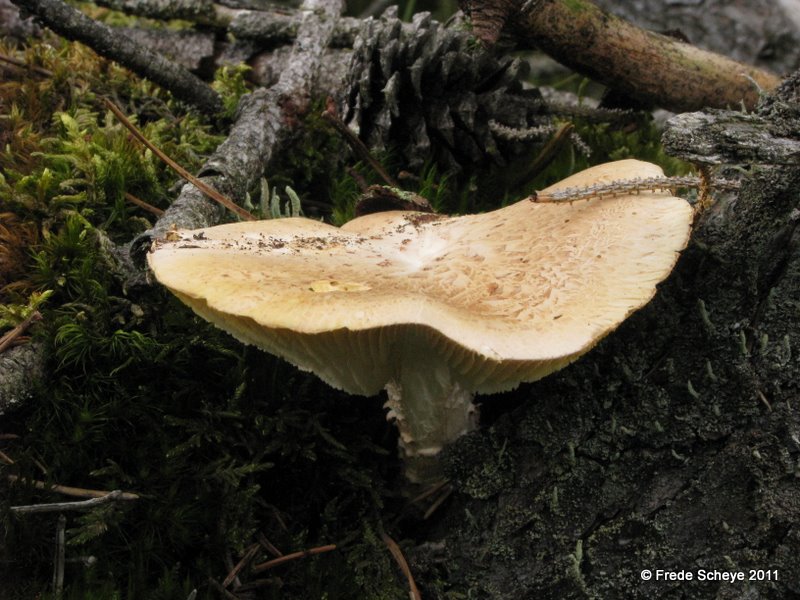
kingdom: Fungi
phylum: Basidiomycota
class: Agaricomycetes
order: Gloeophyllales
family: Gloeophyllaceae
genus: Neolentinus
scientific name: Neolentinus lepideus
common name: skællet sejhat
